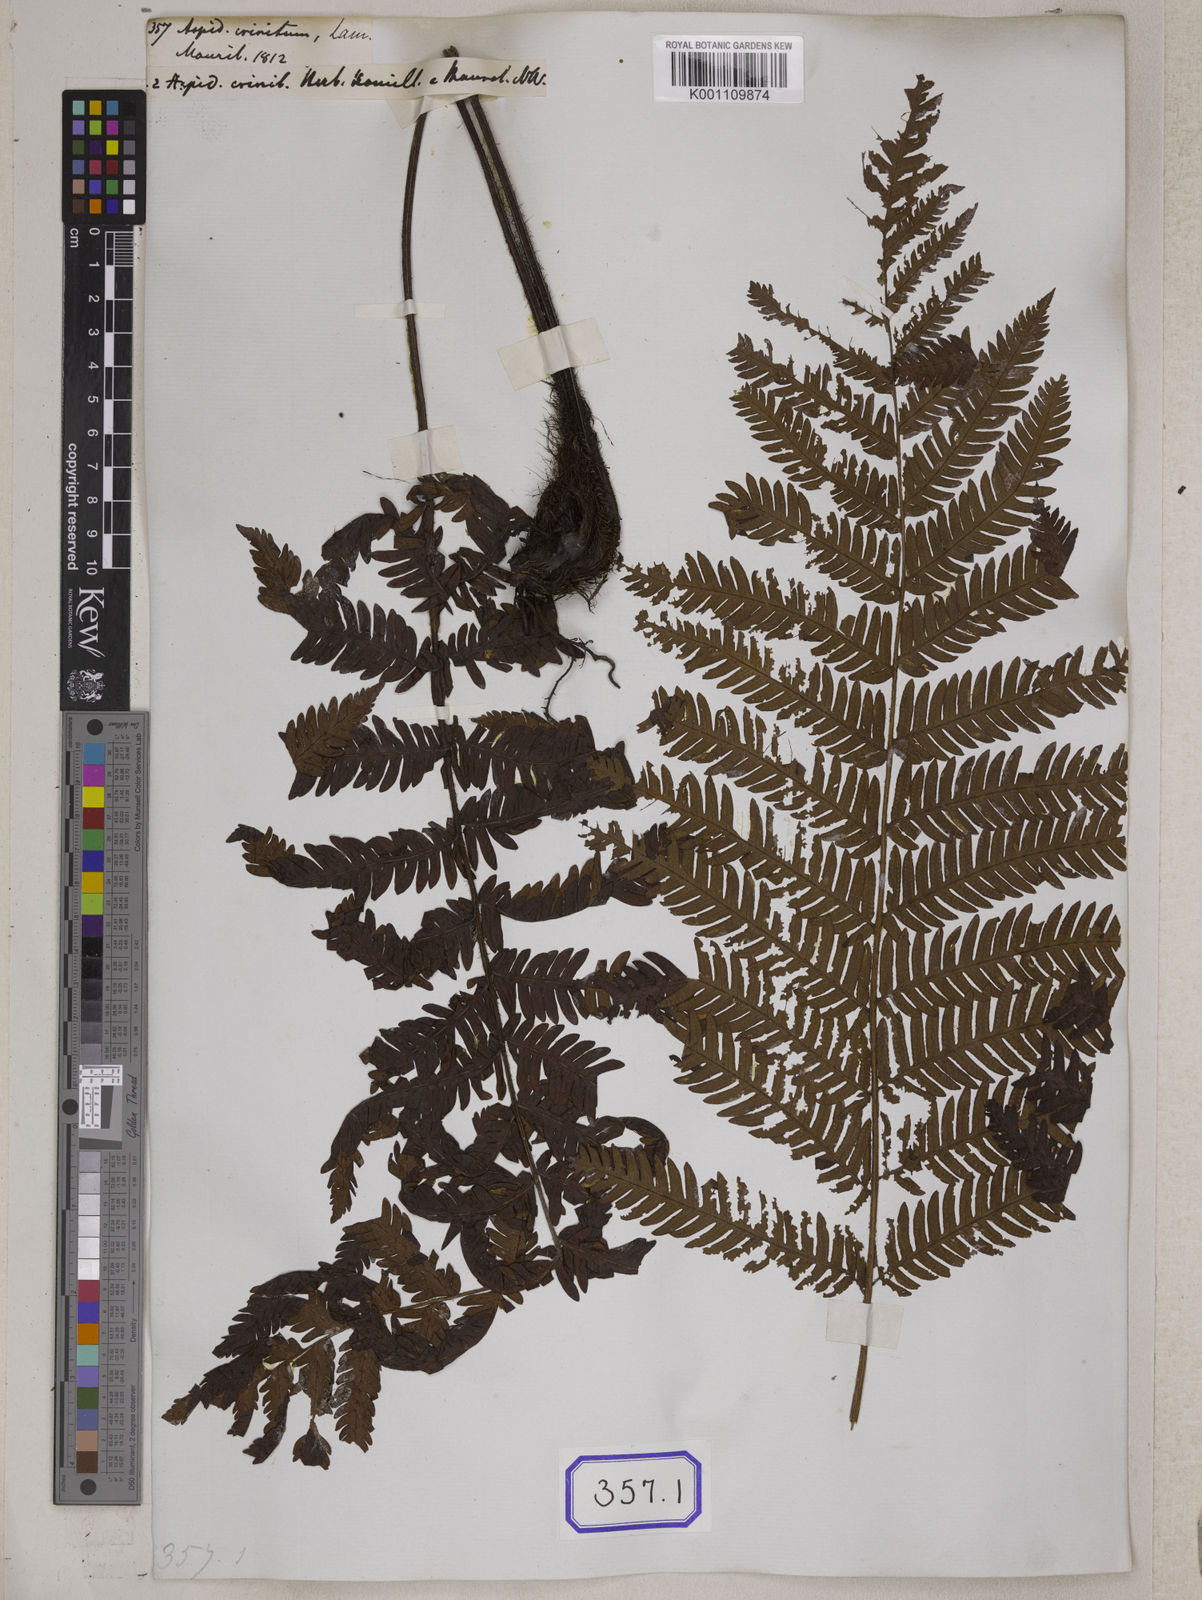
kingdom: Plantae
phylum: Tracheophyta
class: Polypodiopsida
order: Polypodiales
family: Tectariaceae
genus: Tectaria
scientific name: Tectaria Aspidium spec
